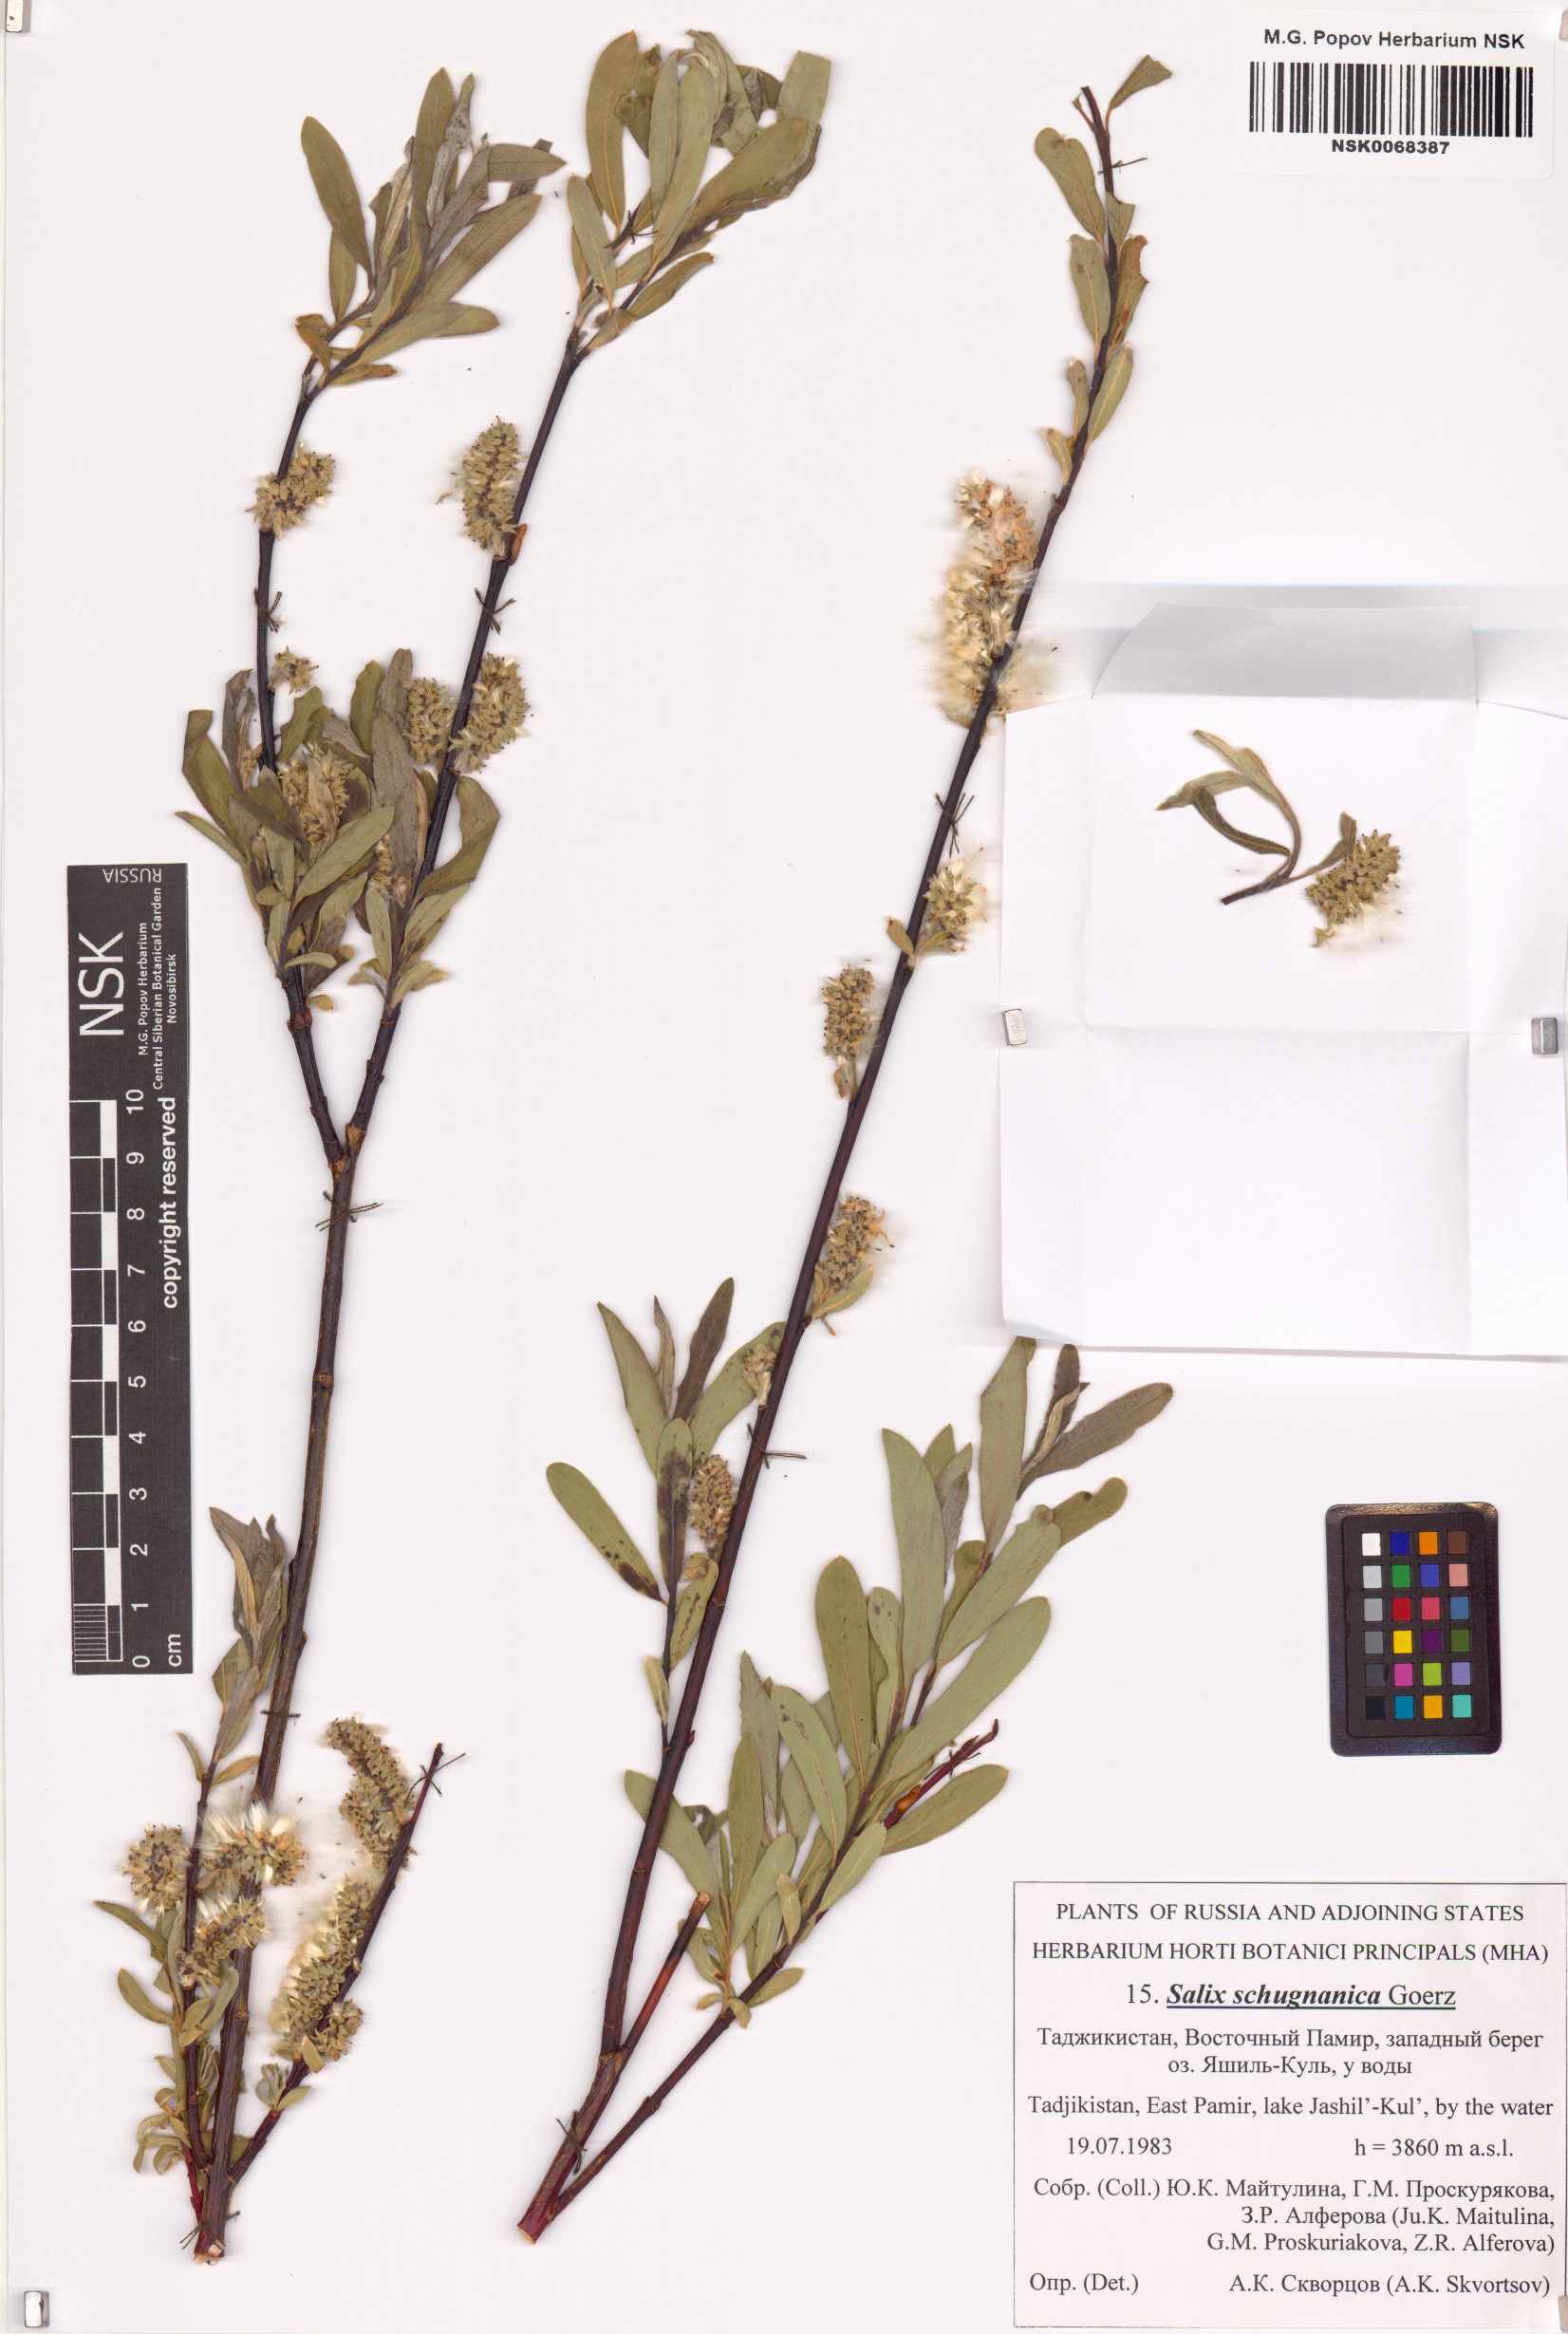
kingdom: Plantae
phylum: Tracheophyta
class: Magnoliopsida
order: Malpighiales
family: Salicaceae
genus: Salix
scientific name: Salix rosmarinifolia
